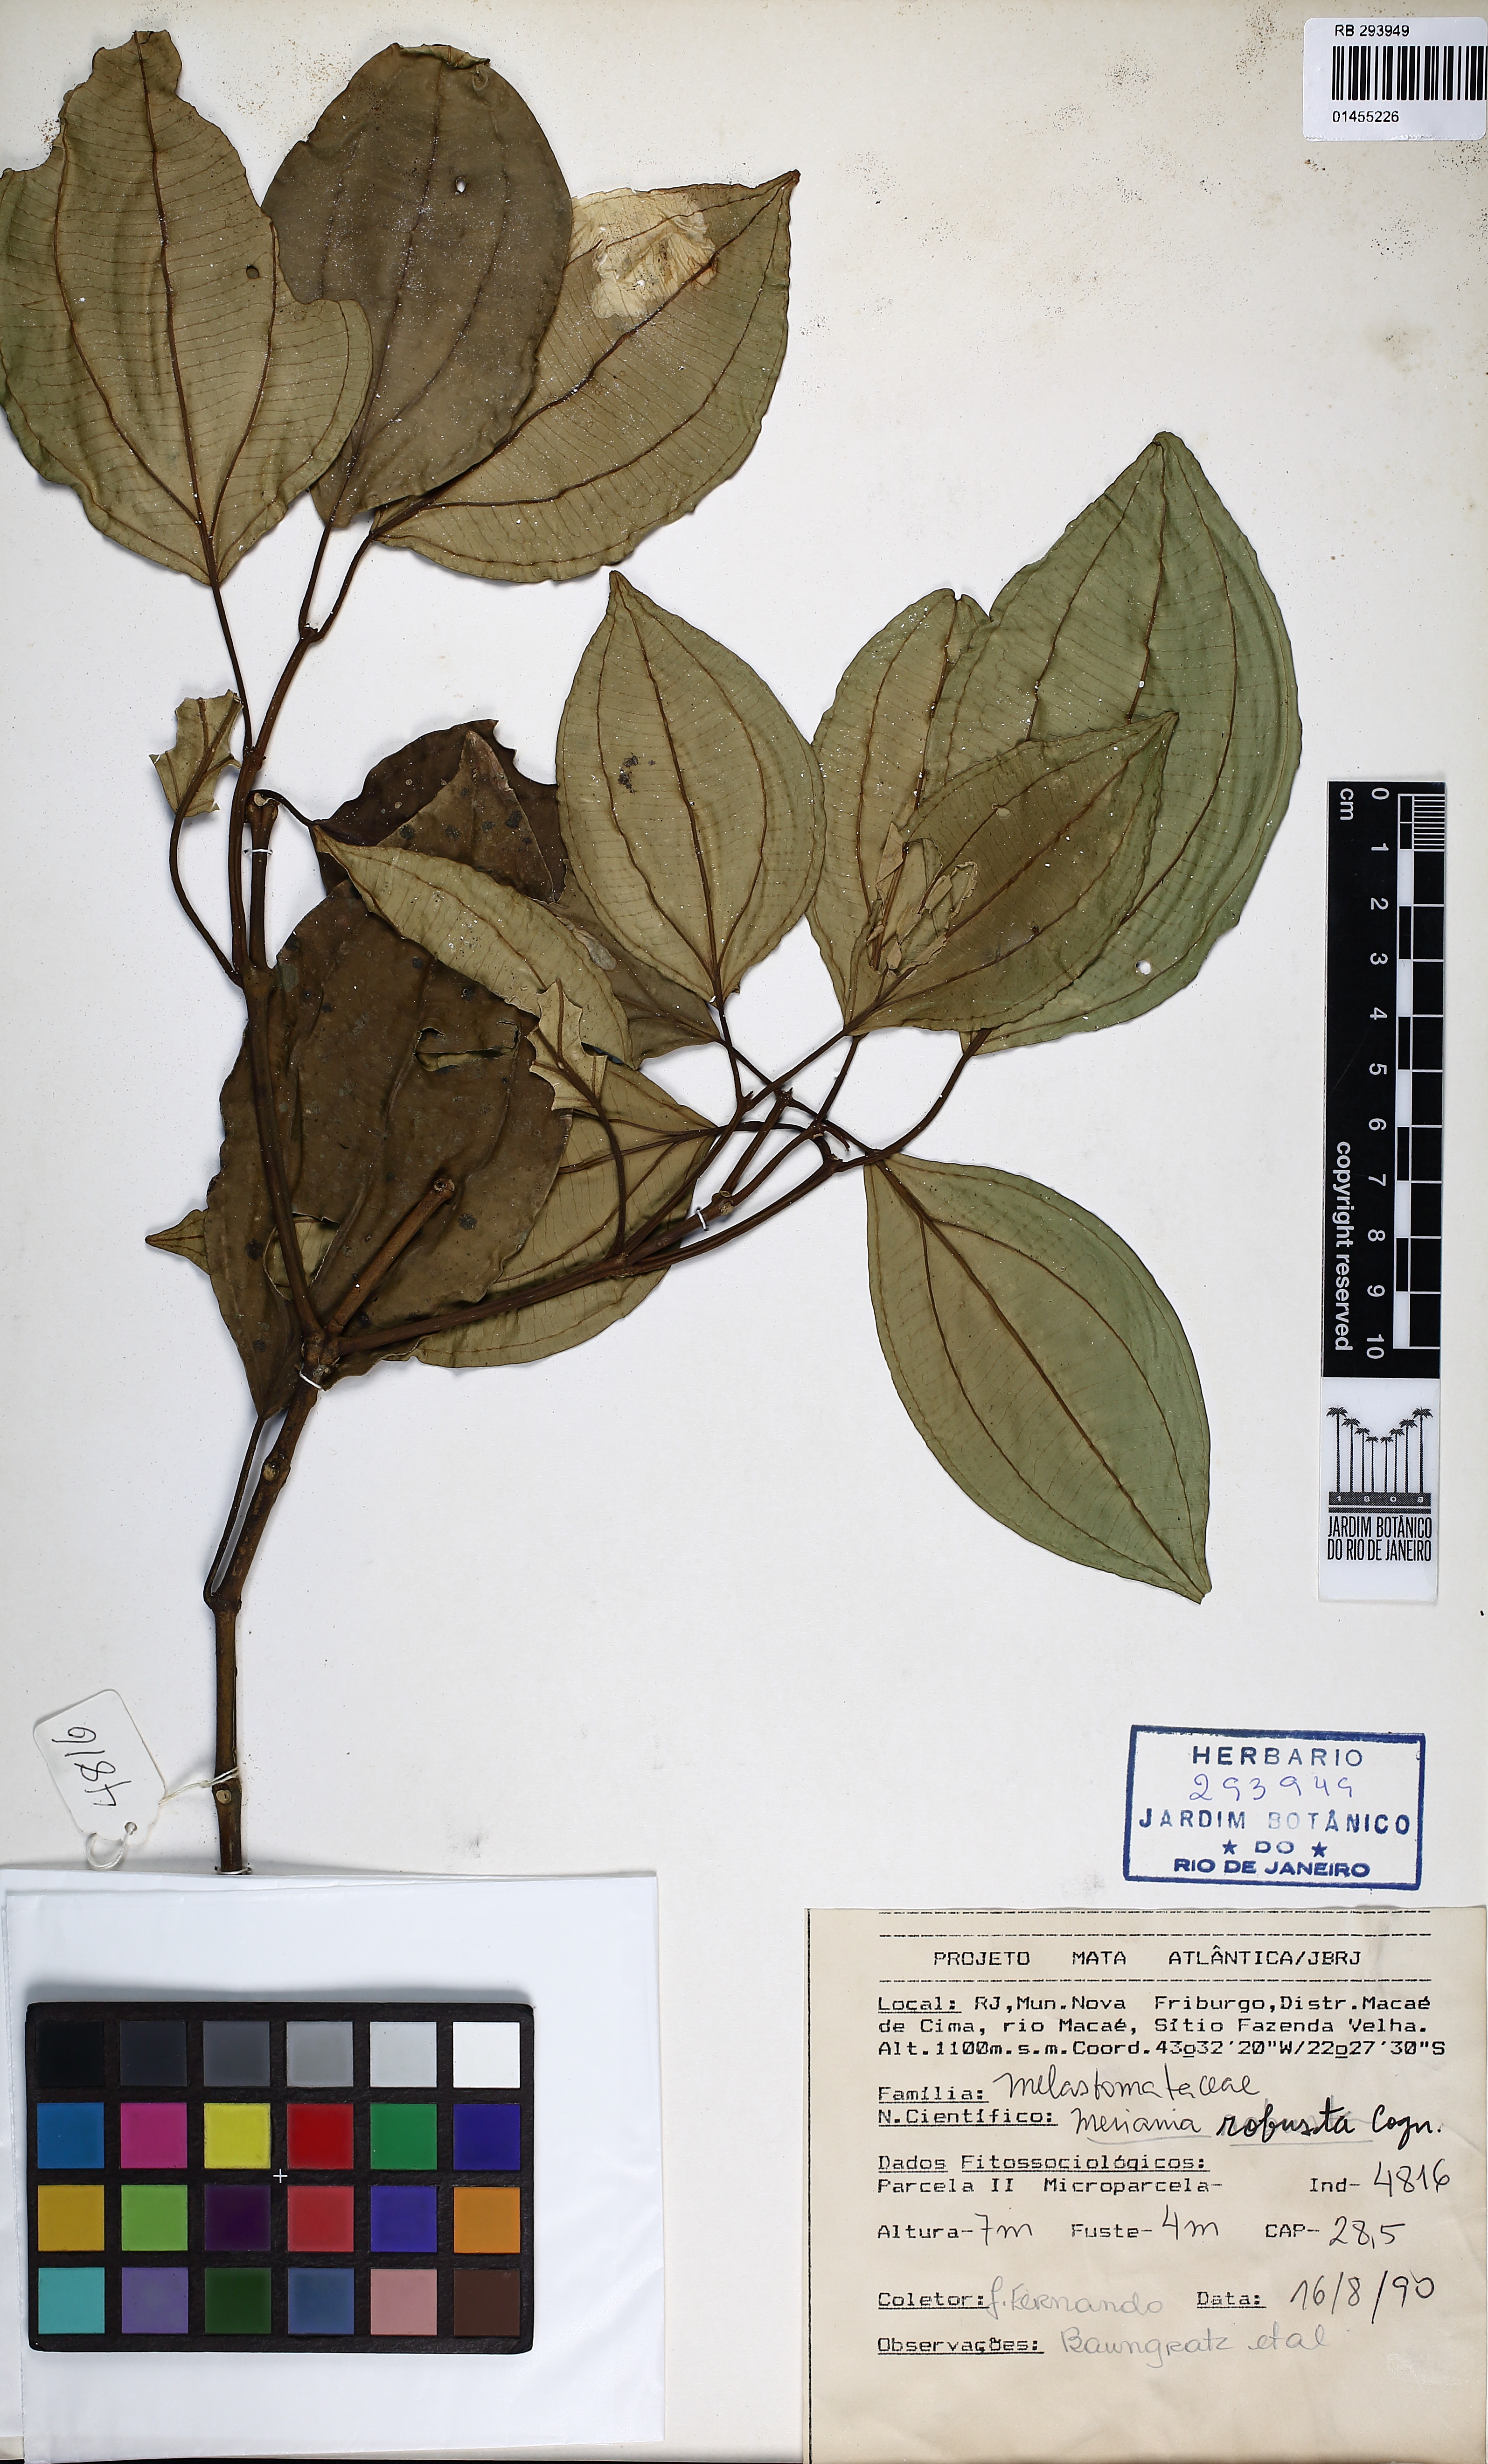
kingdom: Plantae
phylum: Tracheophyta
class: Magnoliopsida
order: Myrtales
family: Melastomataceae
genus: Meriania
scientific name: Meriania robusta
